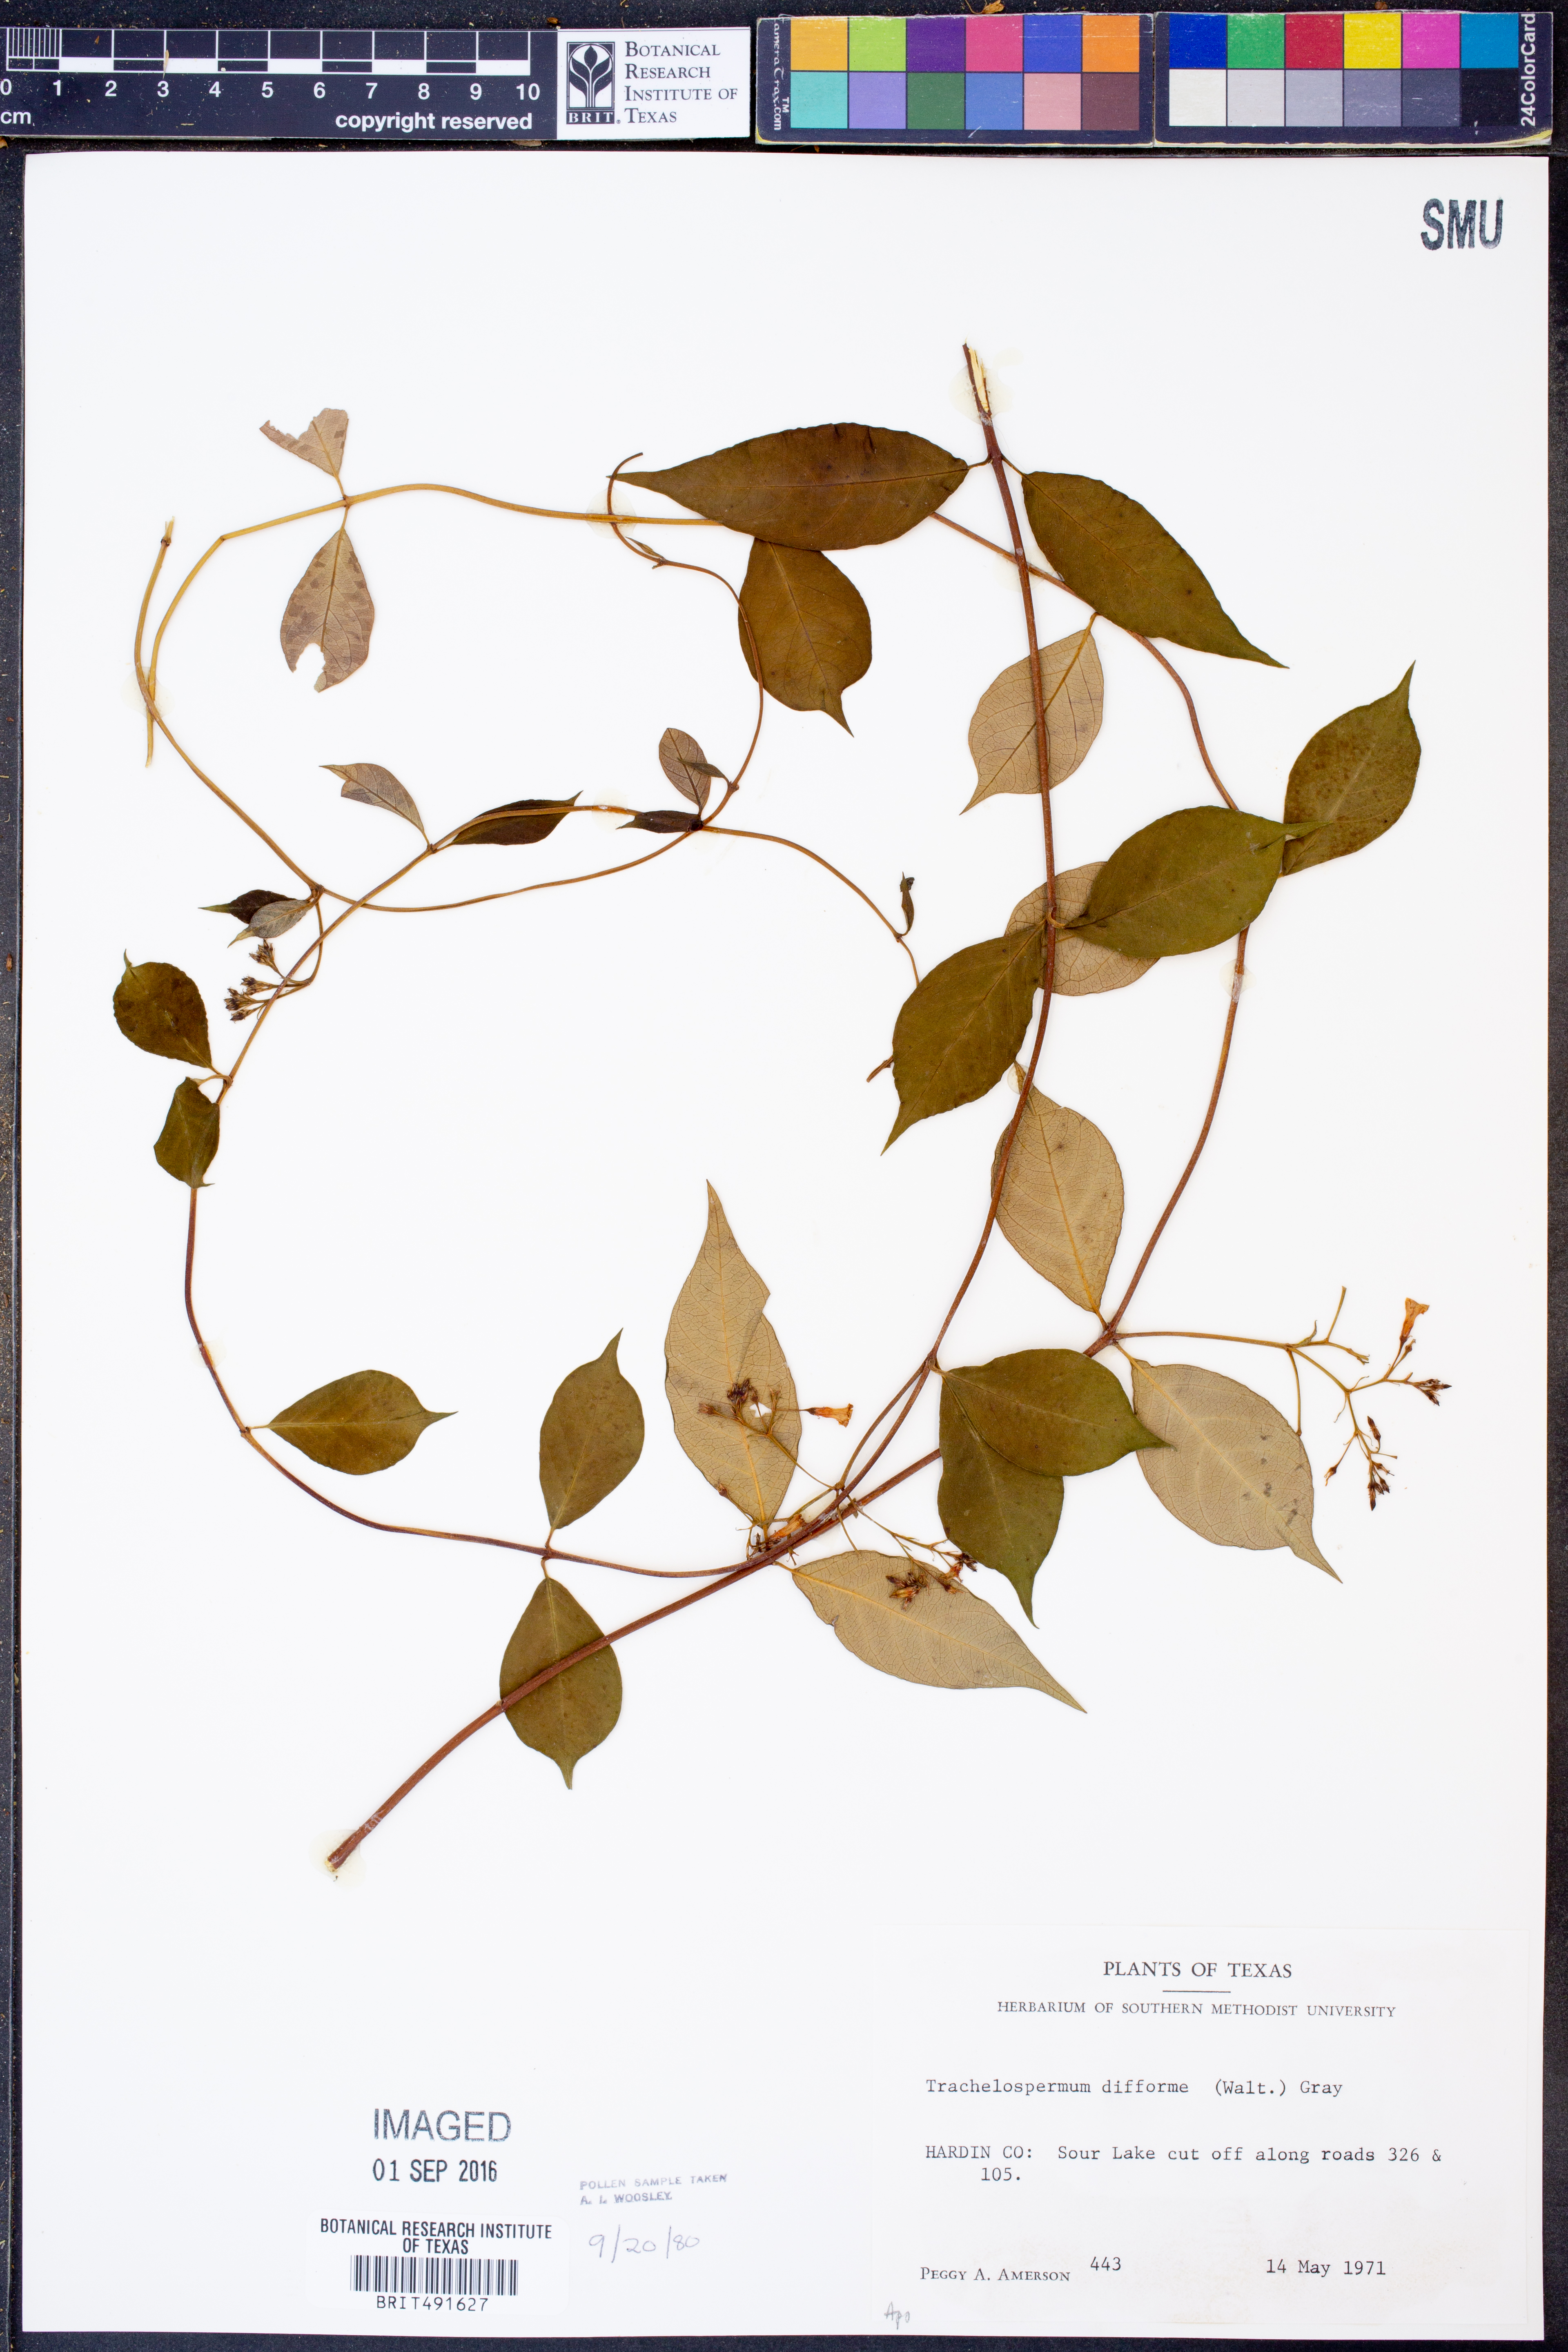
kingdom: Plantae
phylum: Tracheophyta
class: Magnoliopsida
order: Gentianales
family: Apocynaceae
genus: Thyrsanthella
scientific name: Thyrsanthella difformis
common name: Climbing dogbane
